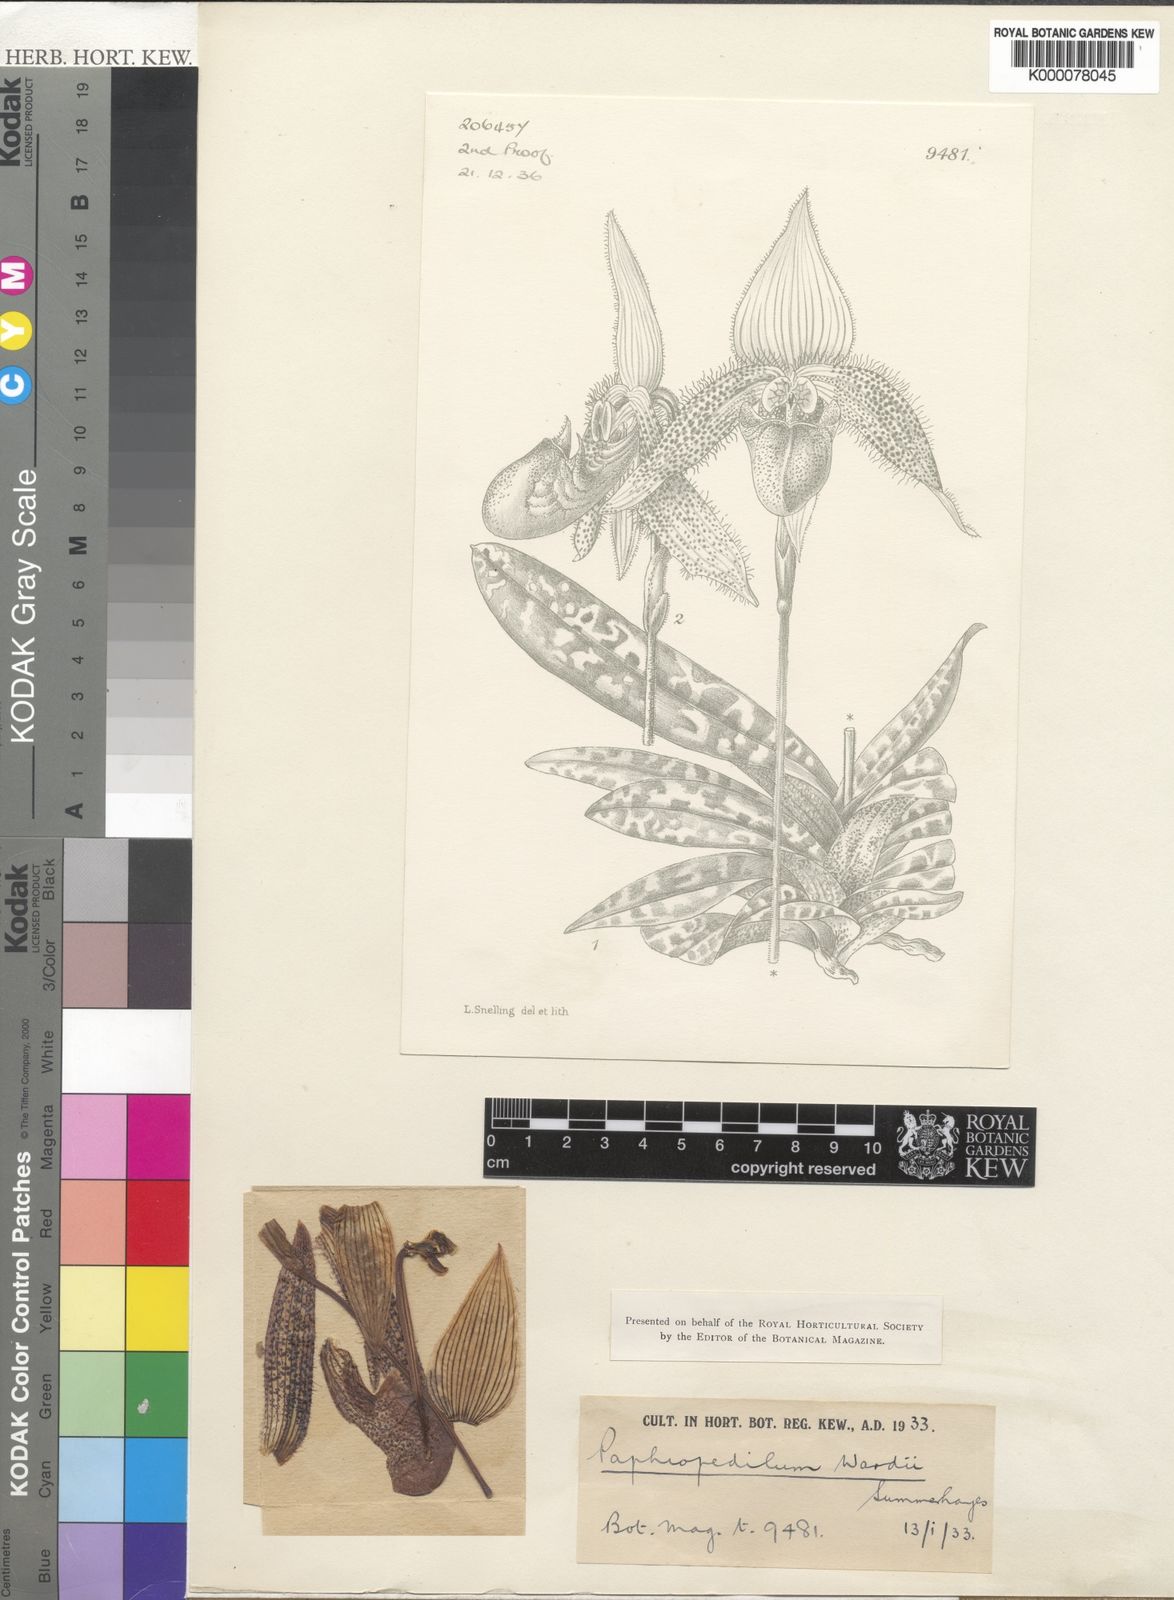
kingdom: Plantae
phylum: Tracheophyta
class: Liliopsida
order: Asparagales
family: Orchidaceae
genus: Paphiopedilum
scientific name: Paphiopedilum wardii
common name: Ward's paphiopedilum
